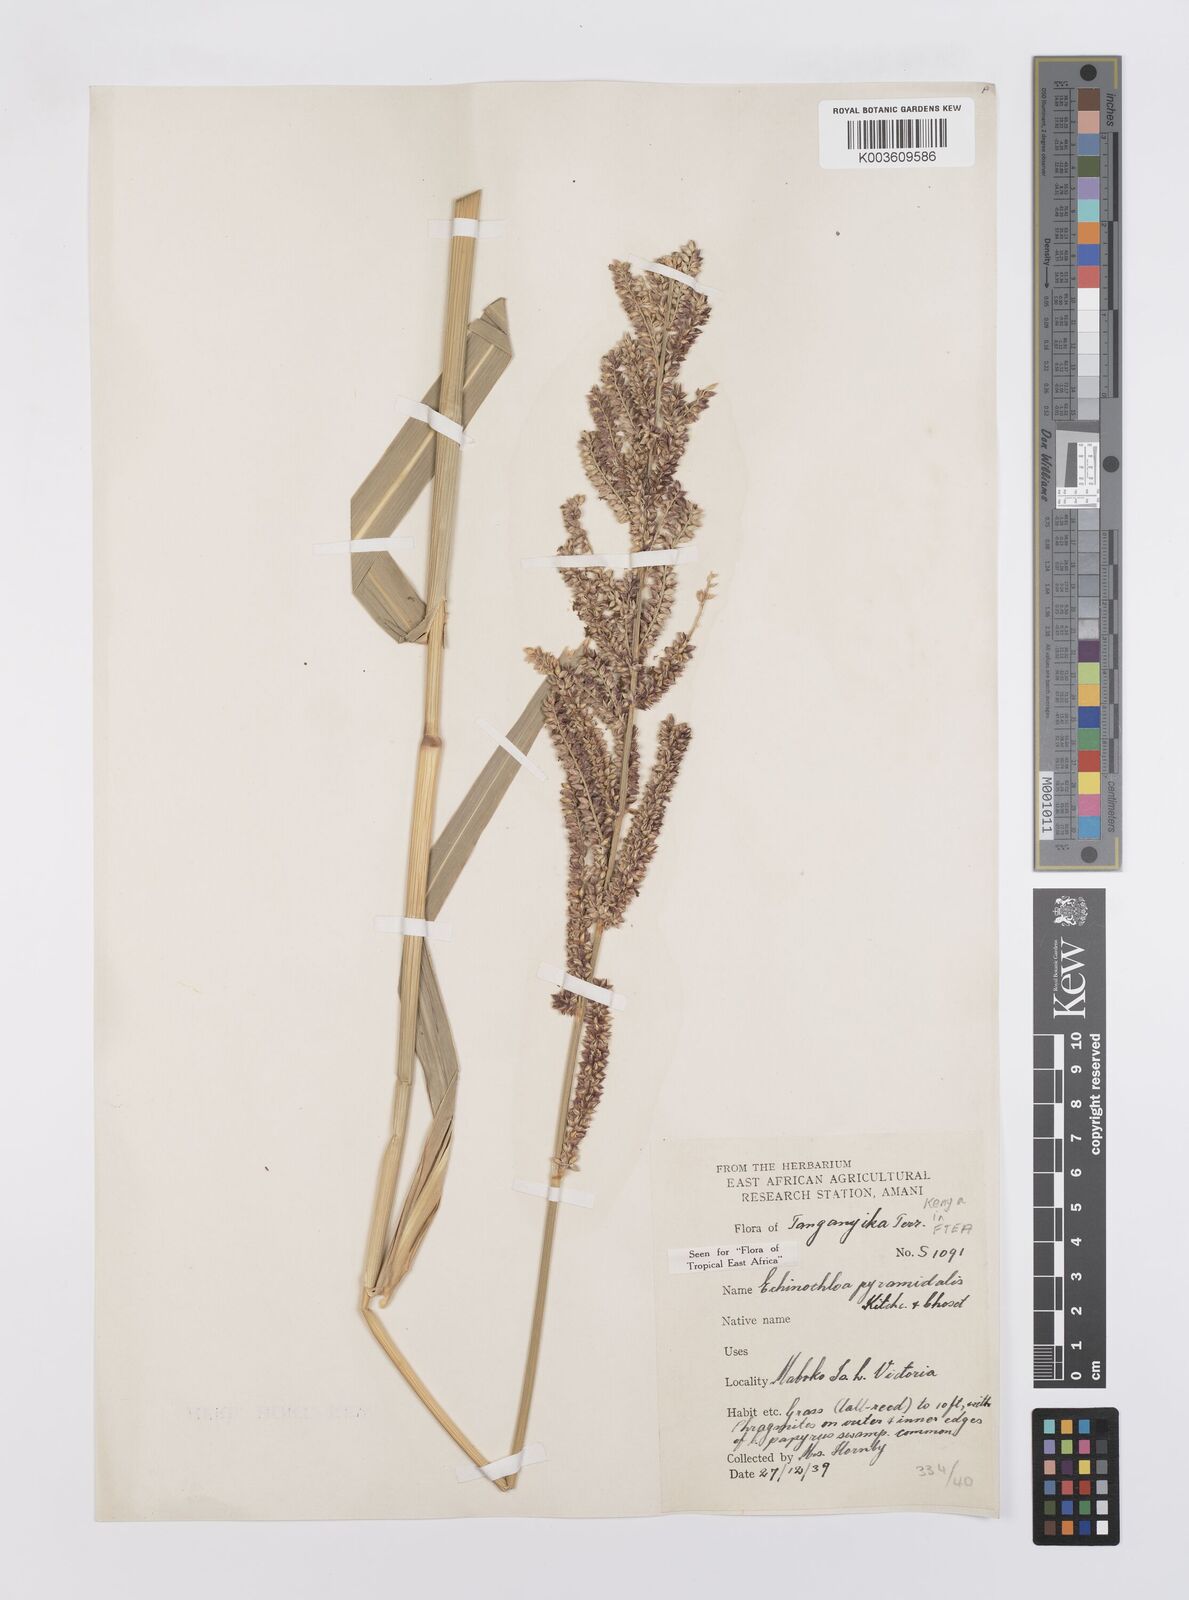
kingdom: Plantae
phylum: Tracheophyta
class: Liliopsida
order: Poales
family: Poaceae
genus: Echinochloa
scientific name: Echinochloa pyramidalis
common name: Antelope grass
